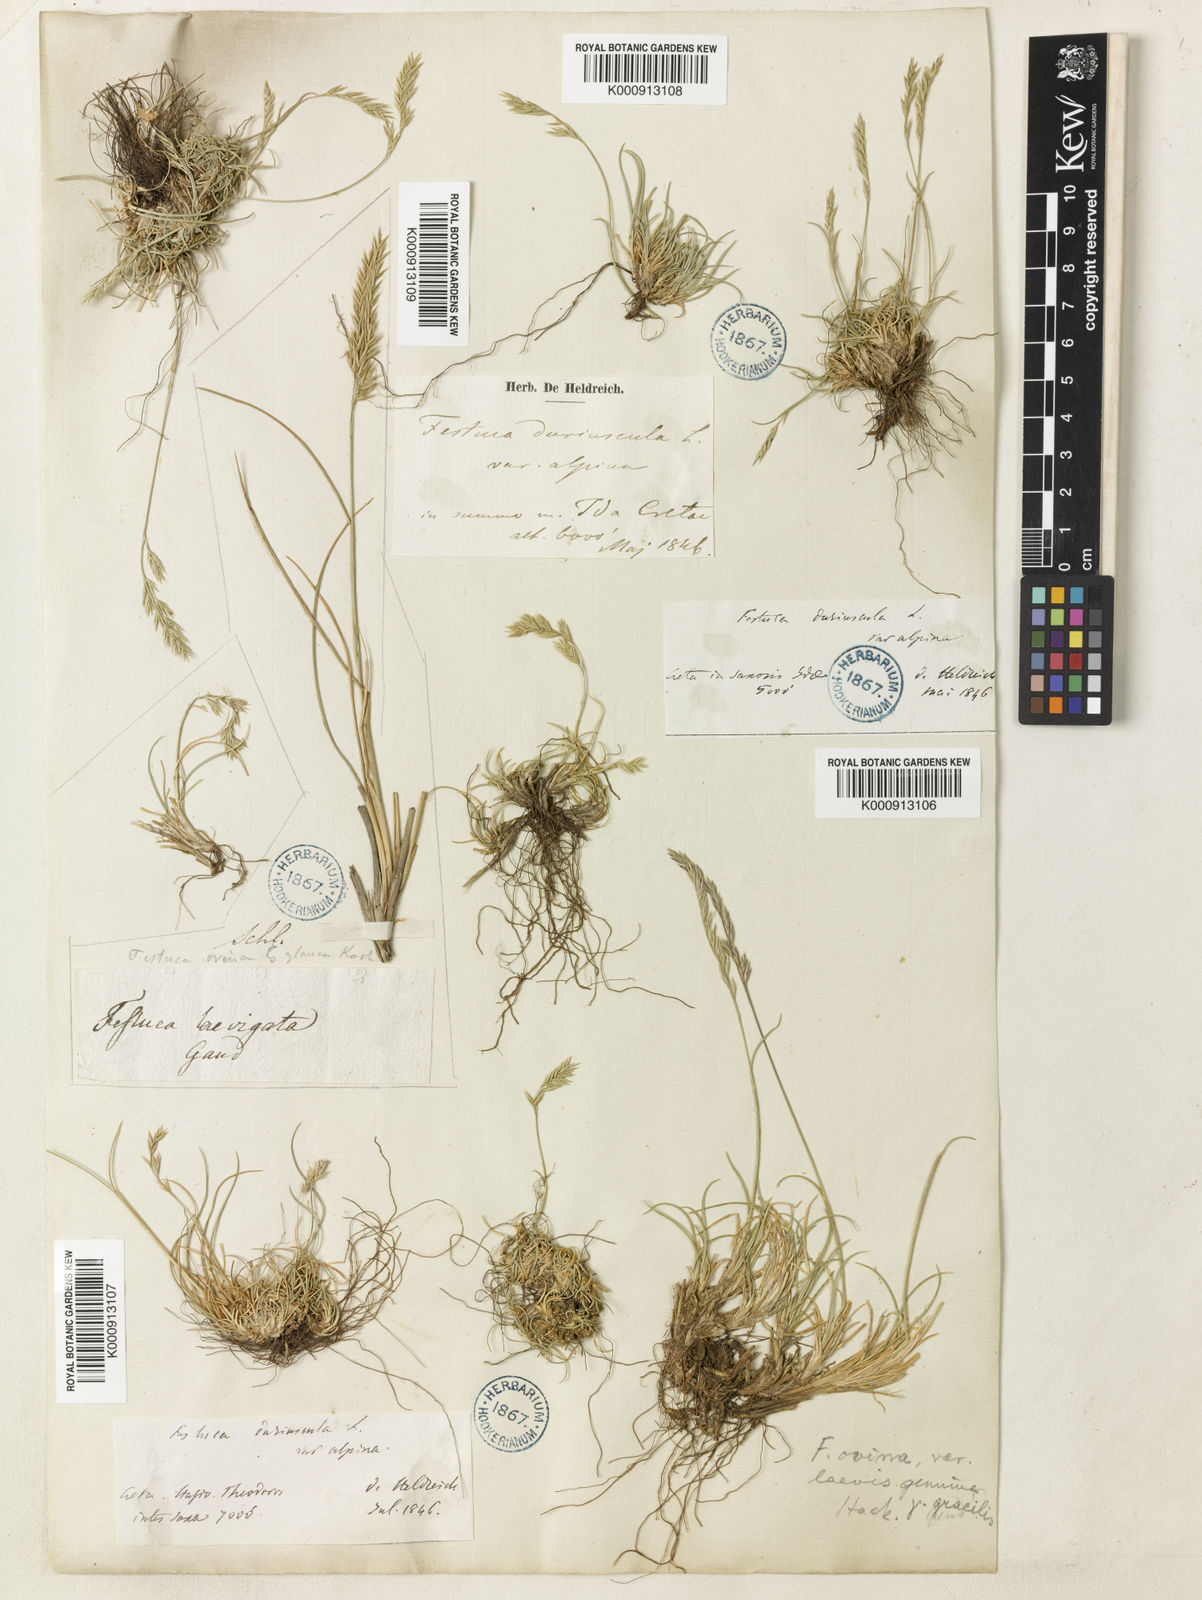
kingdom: Plantae
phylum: Tracheophyta
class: Liliopsida
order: Poales
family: Poaceae
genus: Festuca
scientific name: Festuca circummediterranea
